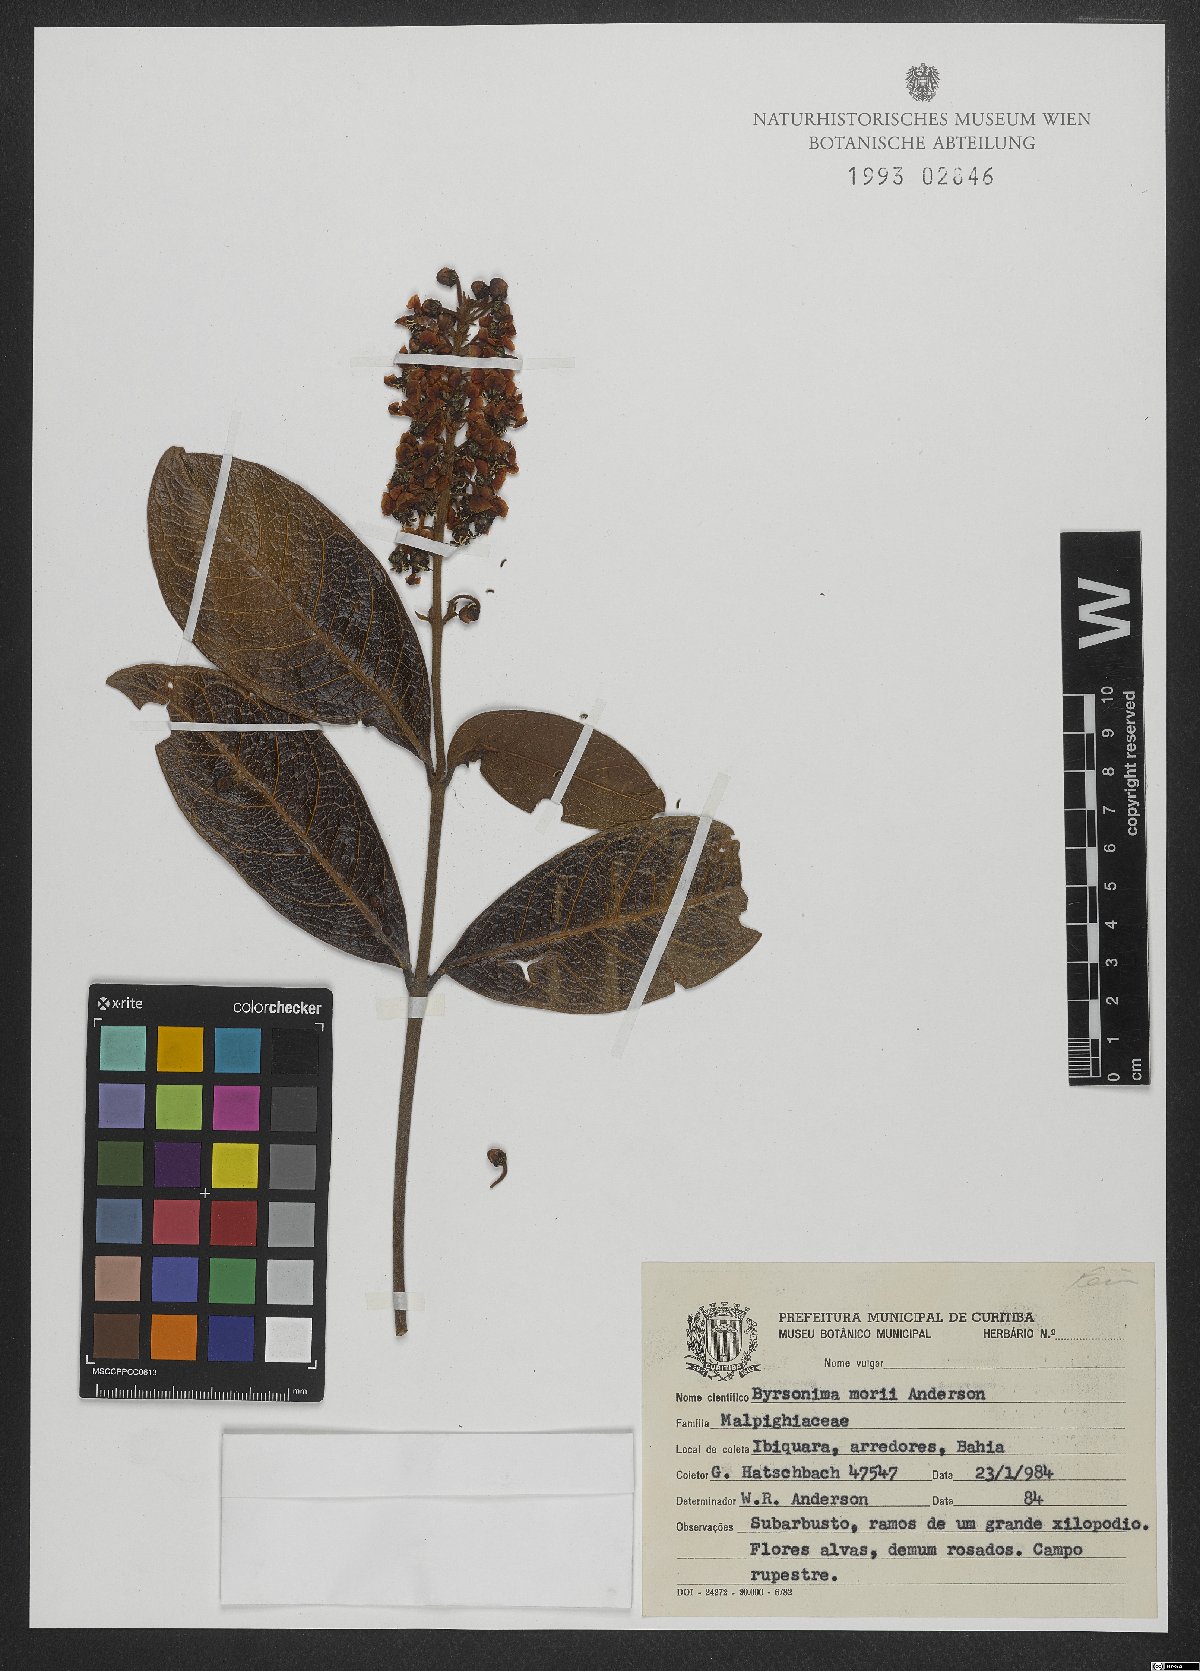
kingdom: Plantae
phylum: Tracheophyta
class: Magnoliopsida
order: Malpighiales
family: Malpighiaceae
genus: Byrsonima
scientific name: Byrsonima morii
